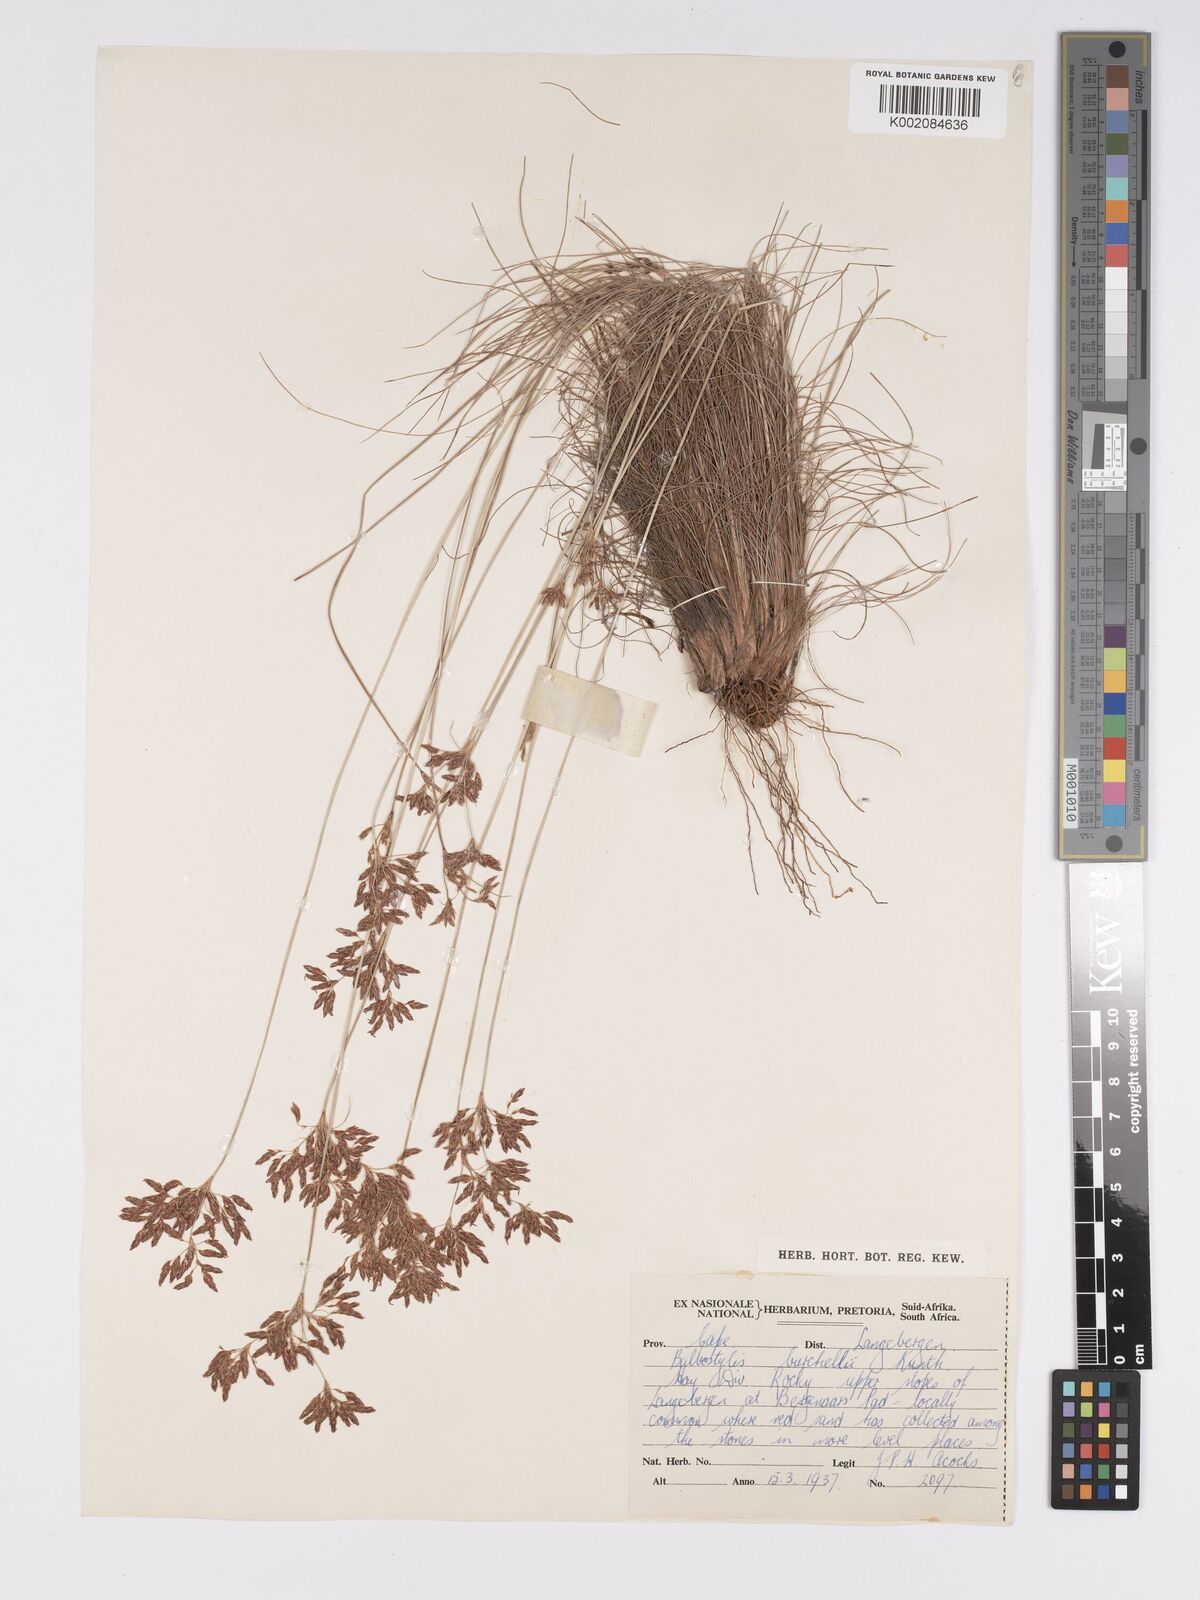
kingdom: Plantae
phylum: Tracheophyta
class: Liliopsida
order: Poales
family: Cyperaceae
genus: Bulbostylis
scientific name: Bulbostylis burchellii
